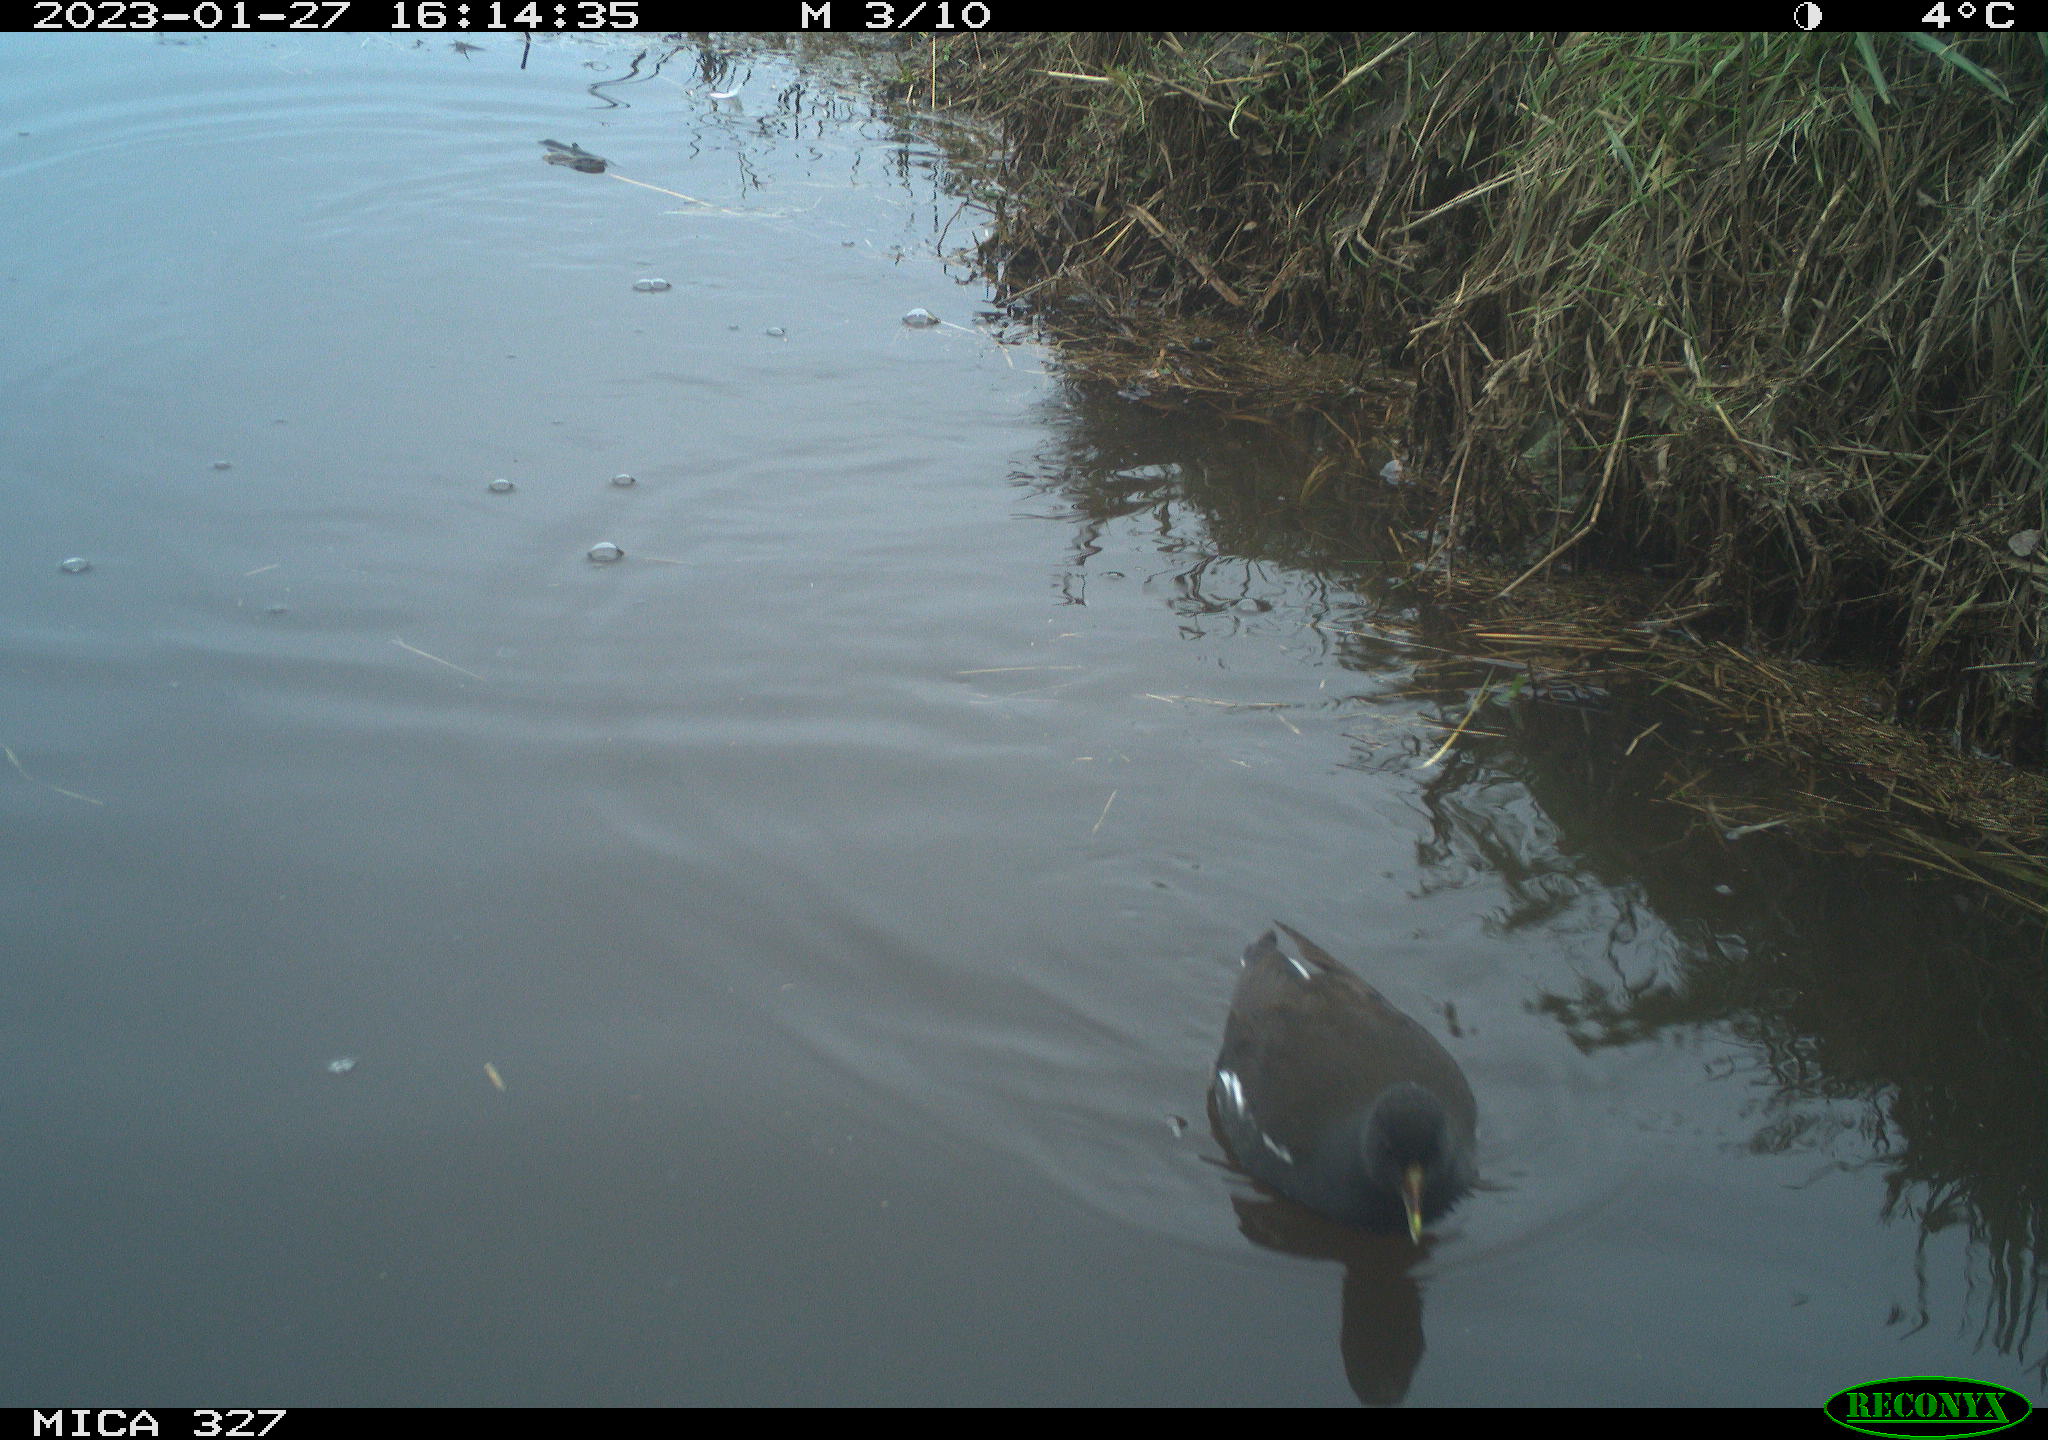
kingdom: Animalia
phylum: Chordata
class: Aves
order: Podicipediformes
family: Podicipedidae
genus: Tachybaptus
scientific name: Tachybaptus ruficollis
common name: Little grebe
